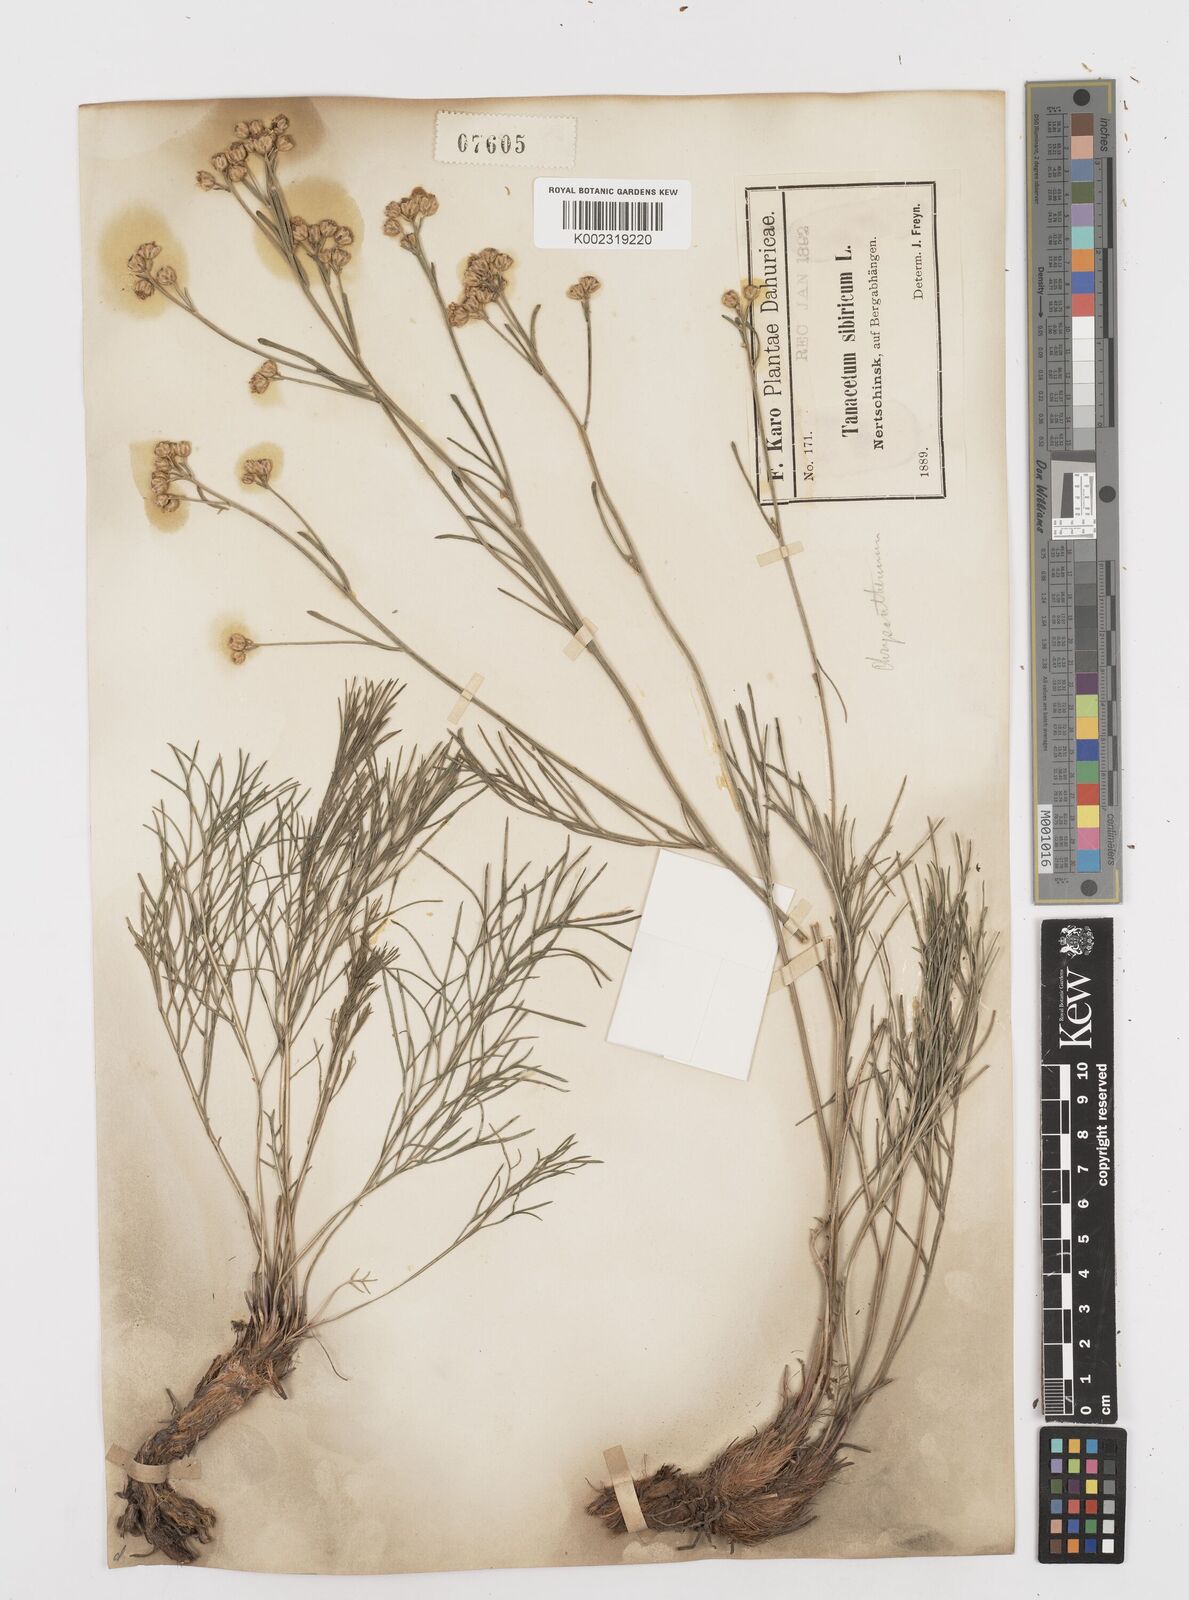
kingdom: Plantae
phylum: Tracheophyta
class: Magnoliopsida
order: Asterales
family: Asteraceae
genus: Filifolium
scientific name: Filifolium sibiricum
